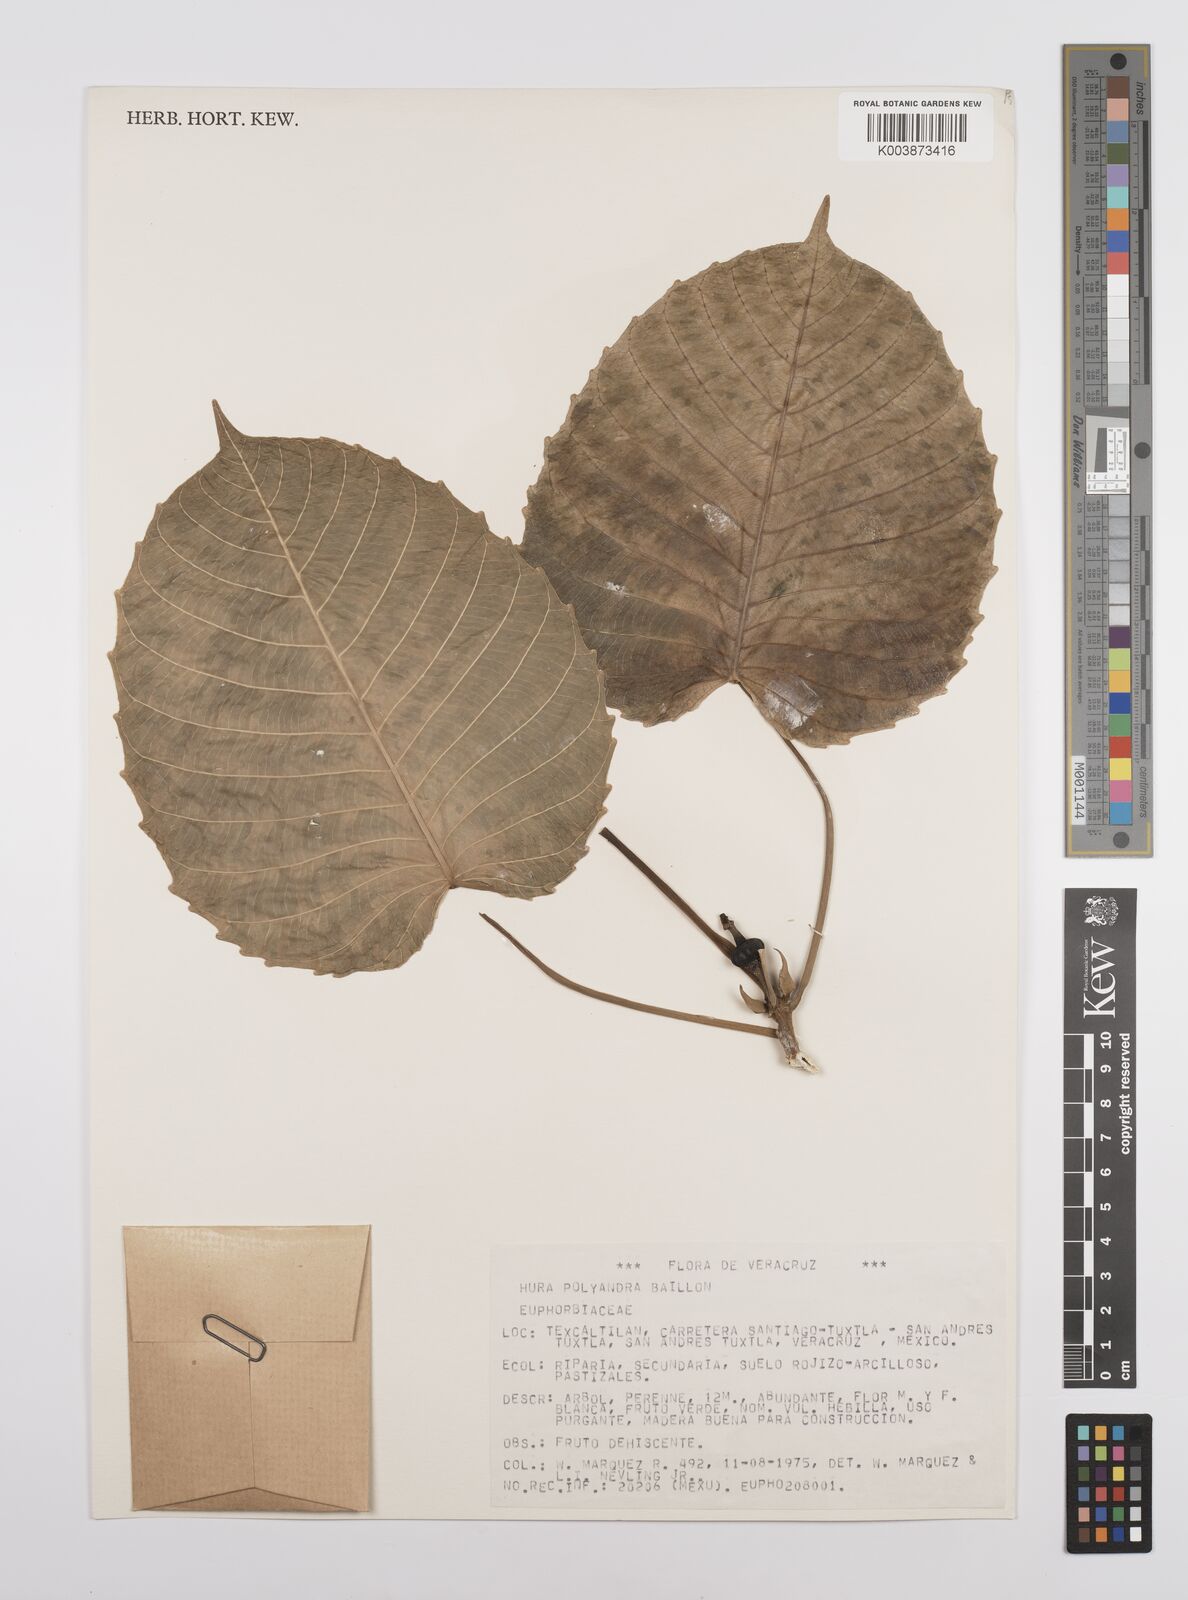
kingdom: Plantae
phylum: Tracheophyta
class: Magnoliopsida
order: Malpighiales
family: Euphorbiaceae
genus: Hura
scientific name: Hura polyandra
